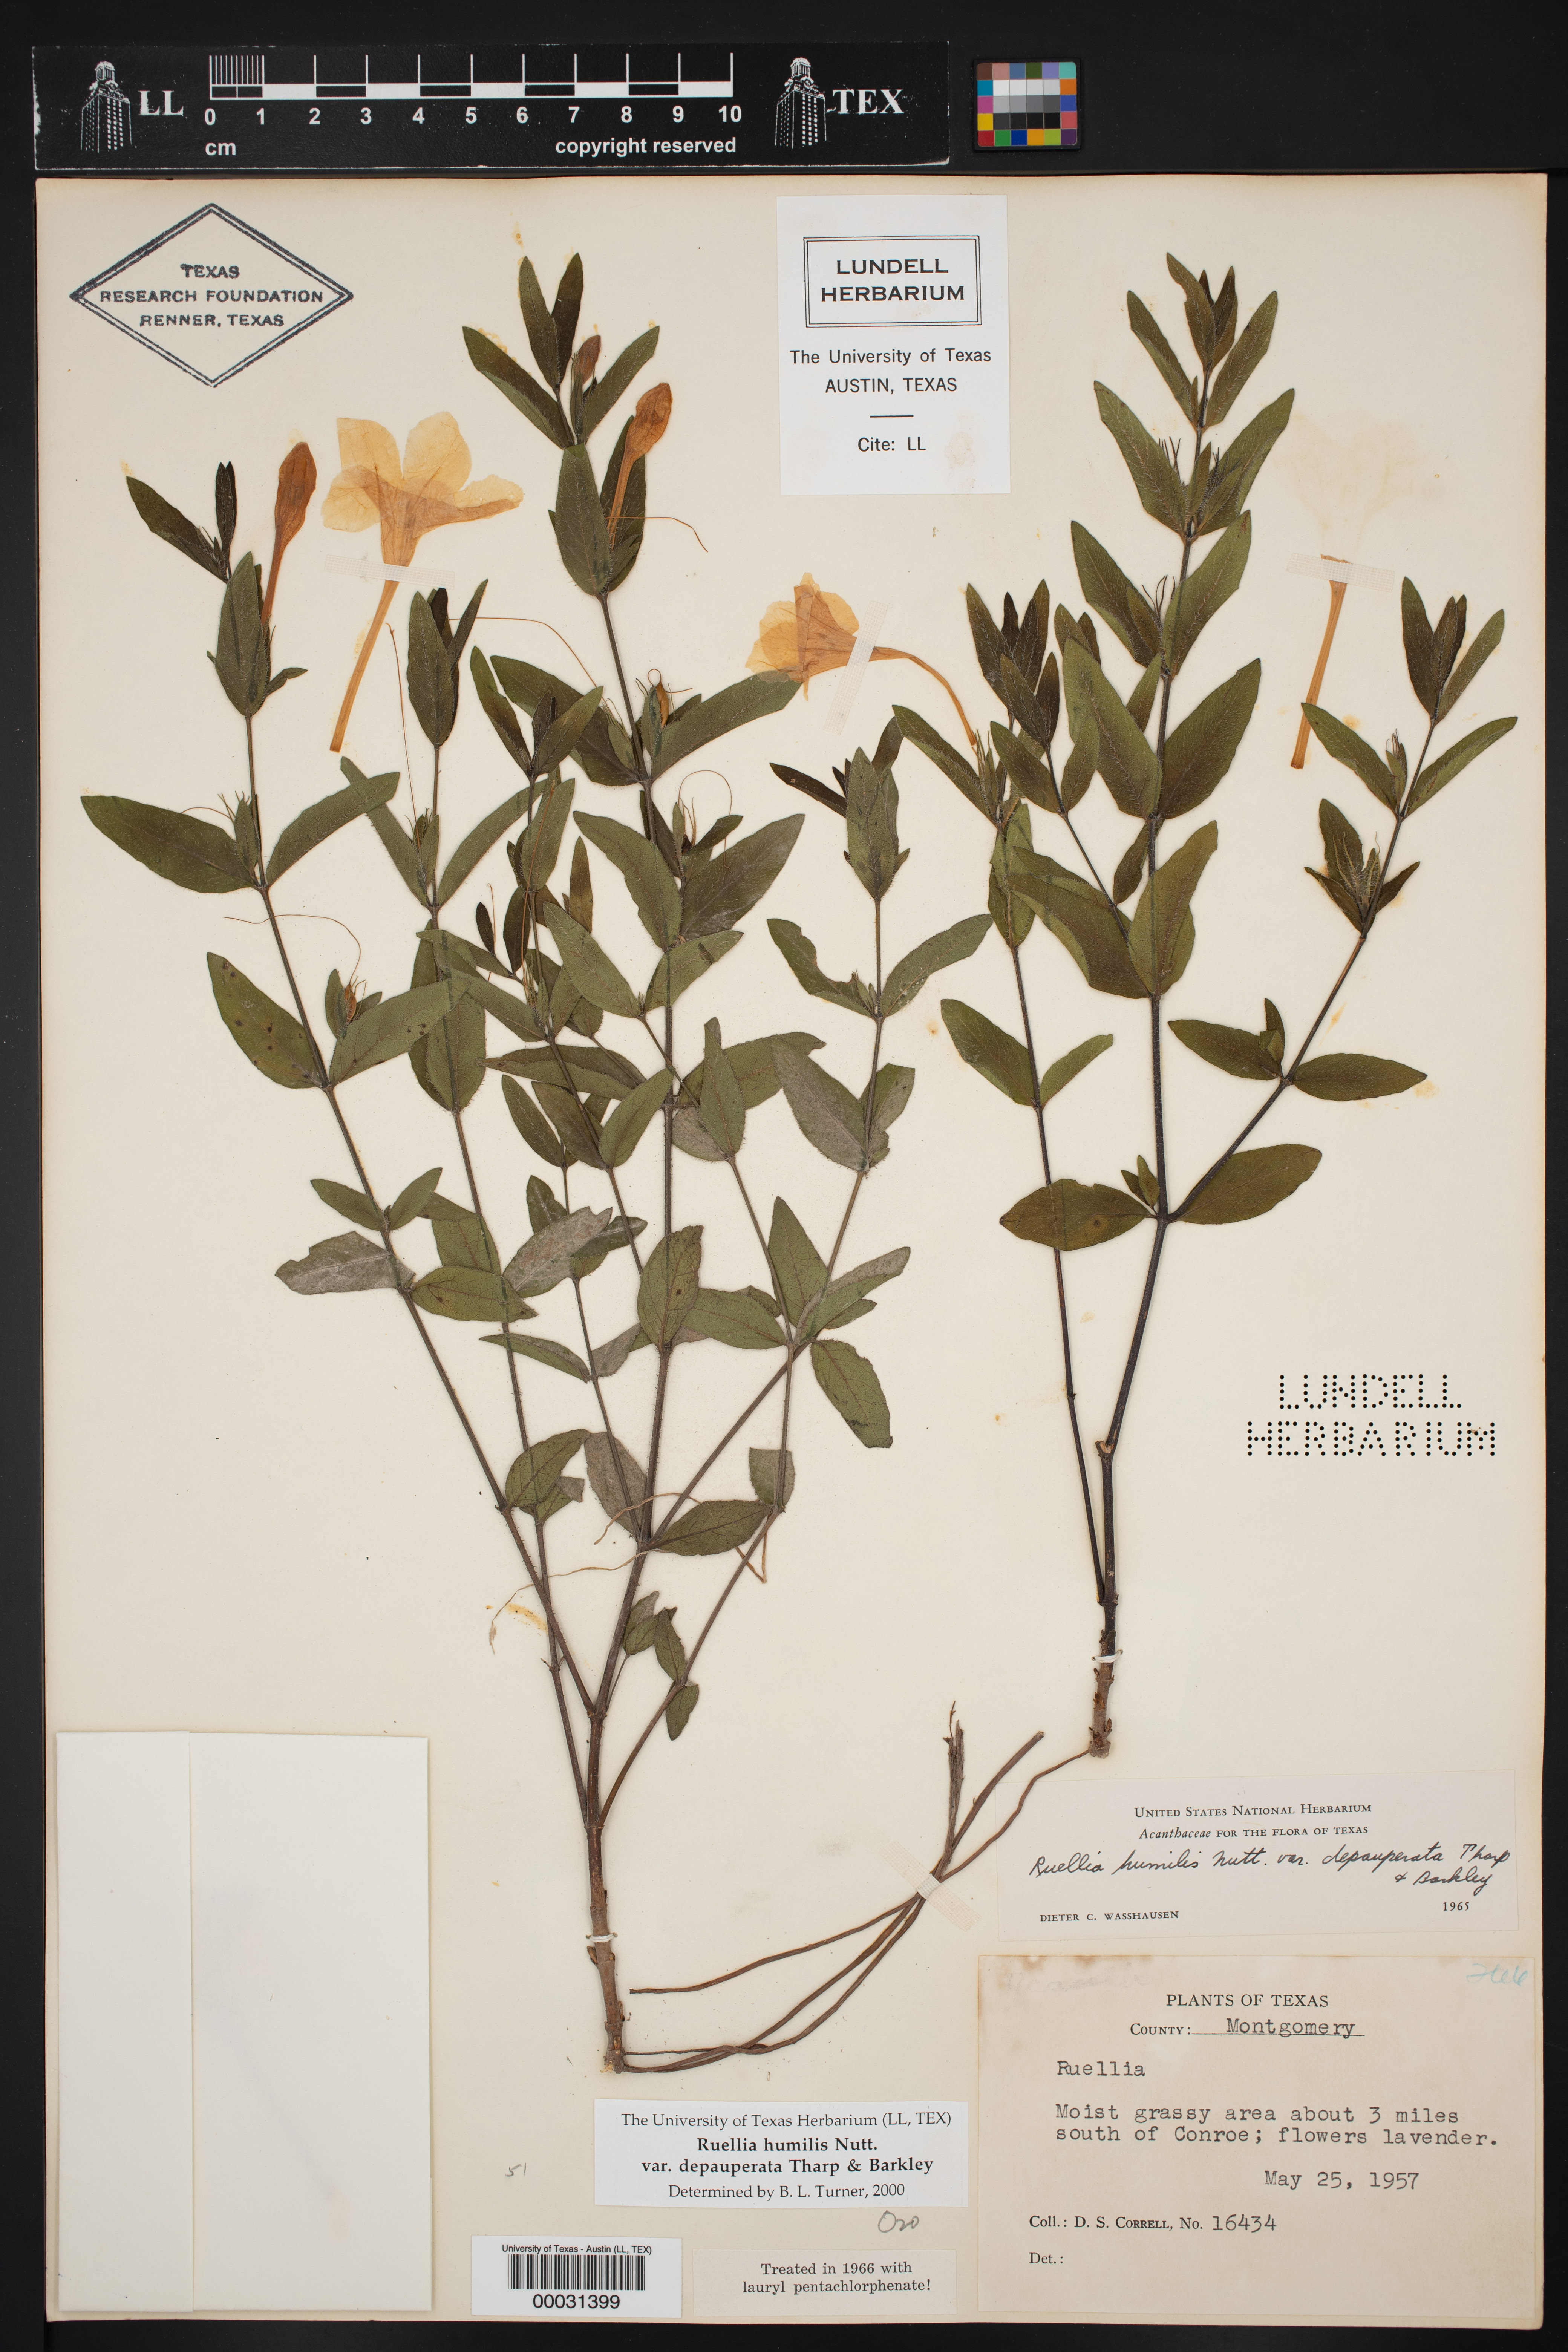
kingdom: Plantae
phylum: Tracheophyta
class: Magnoliopsida
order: Lamiales
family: Acanthaceae
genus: Ruellia
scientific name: Ruellia humilis
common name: Fringe-leaf ruellia
